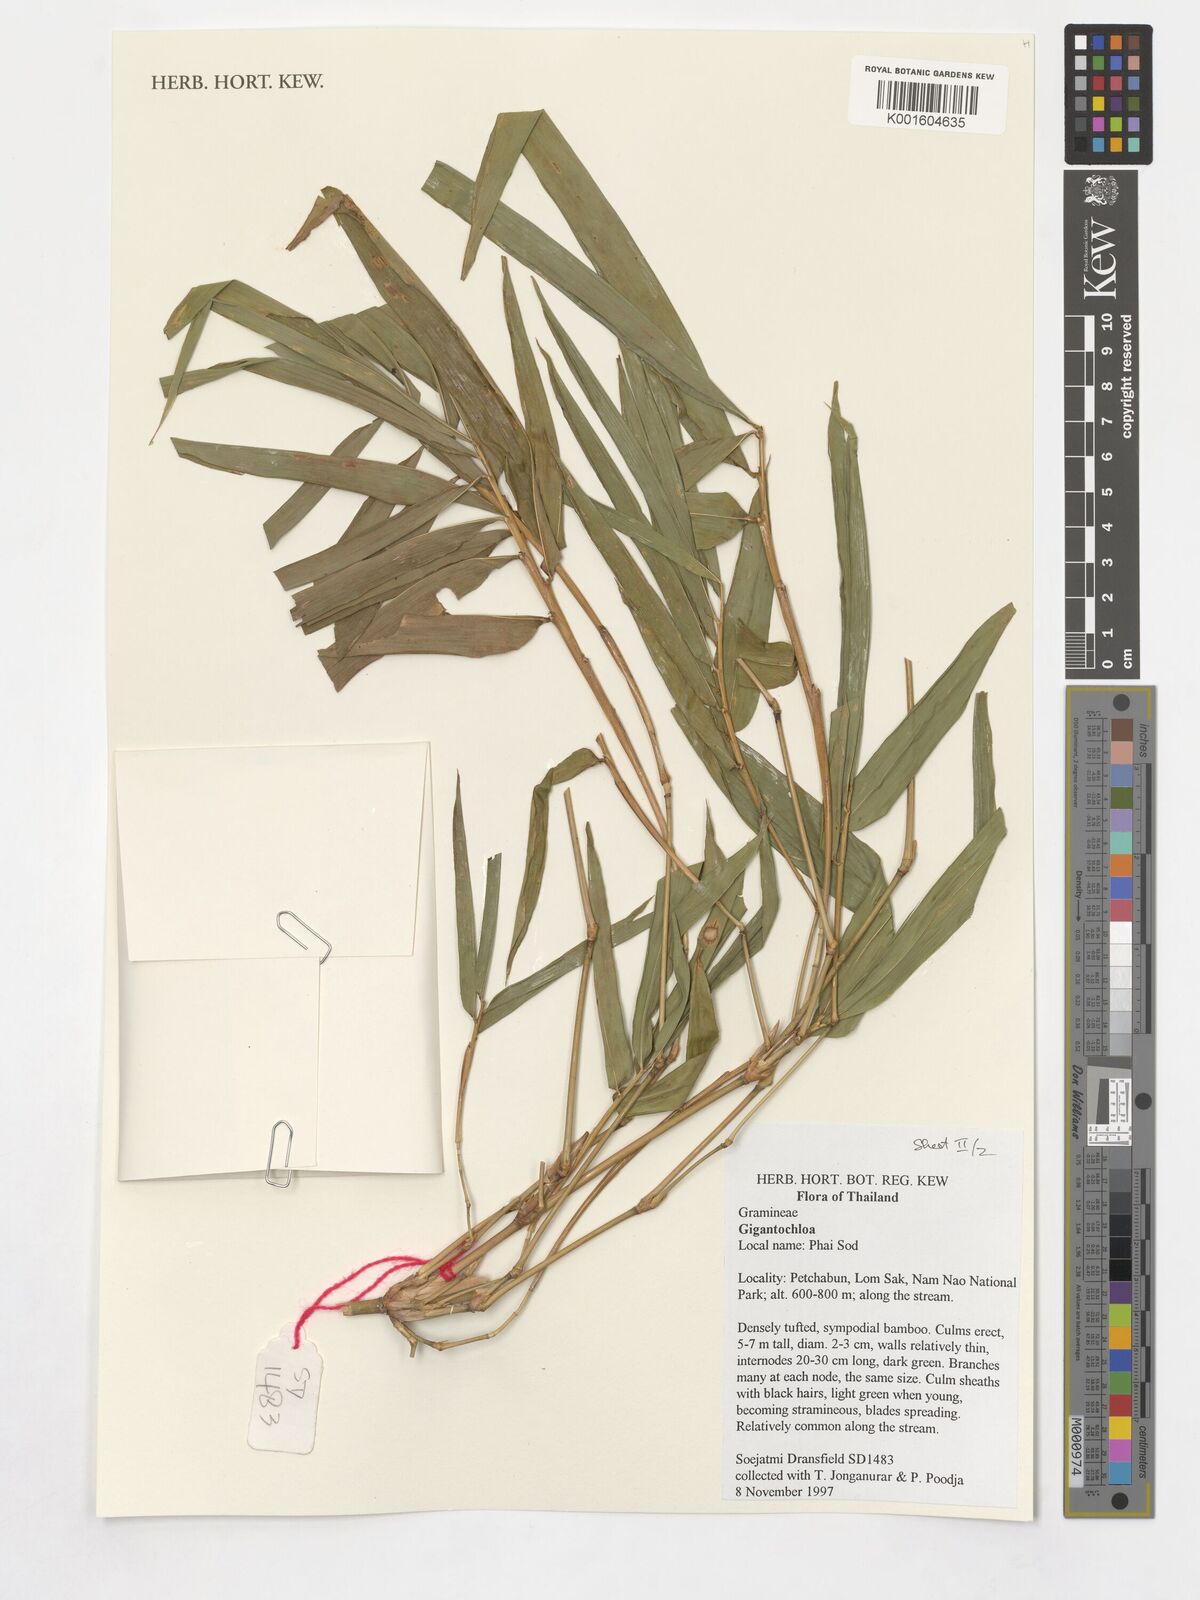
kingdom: Plantae
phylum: Tracheophyta
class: Liliopsida
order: Poales
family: Poaceae
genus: Gigantochloa
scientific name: Gigantochloa
